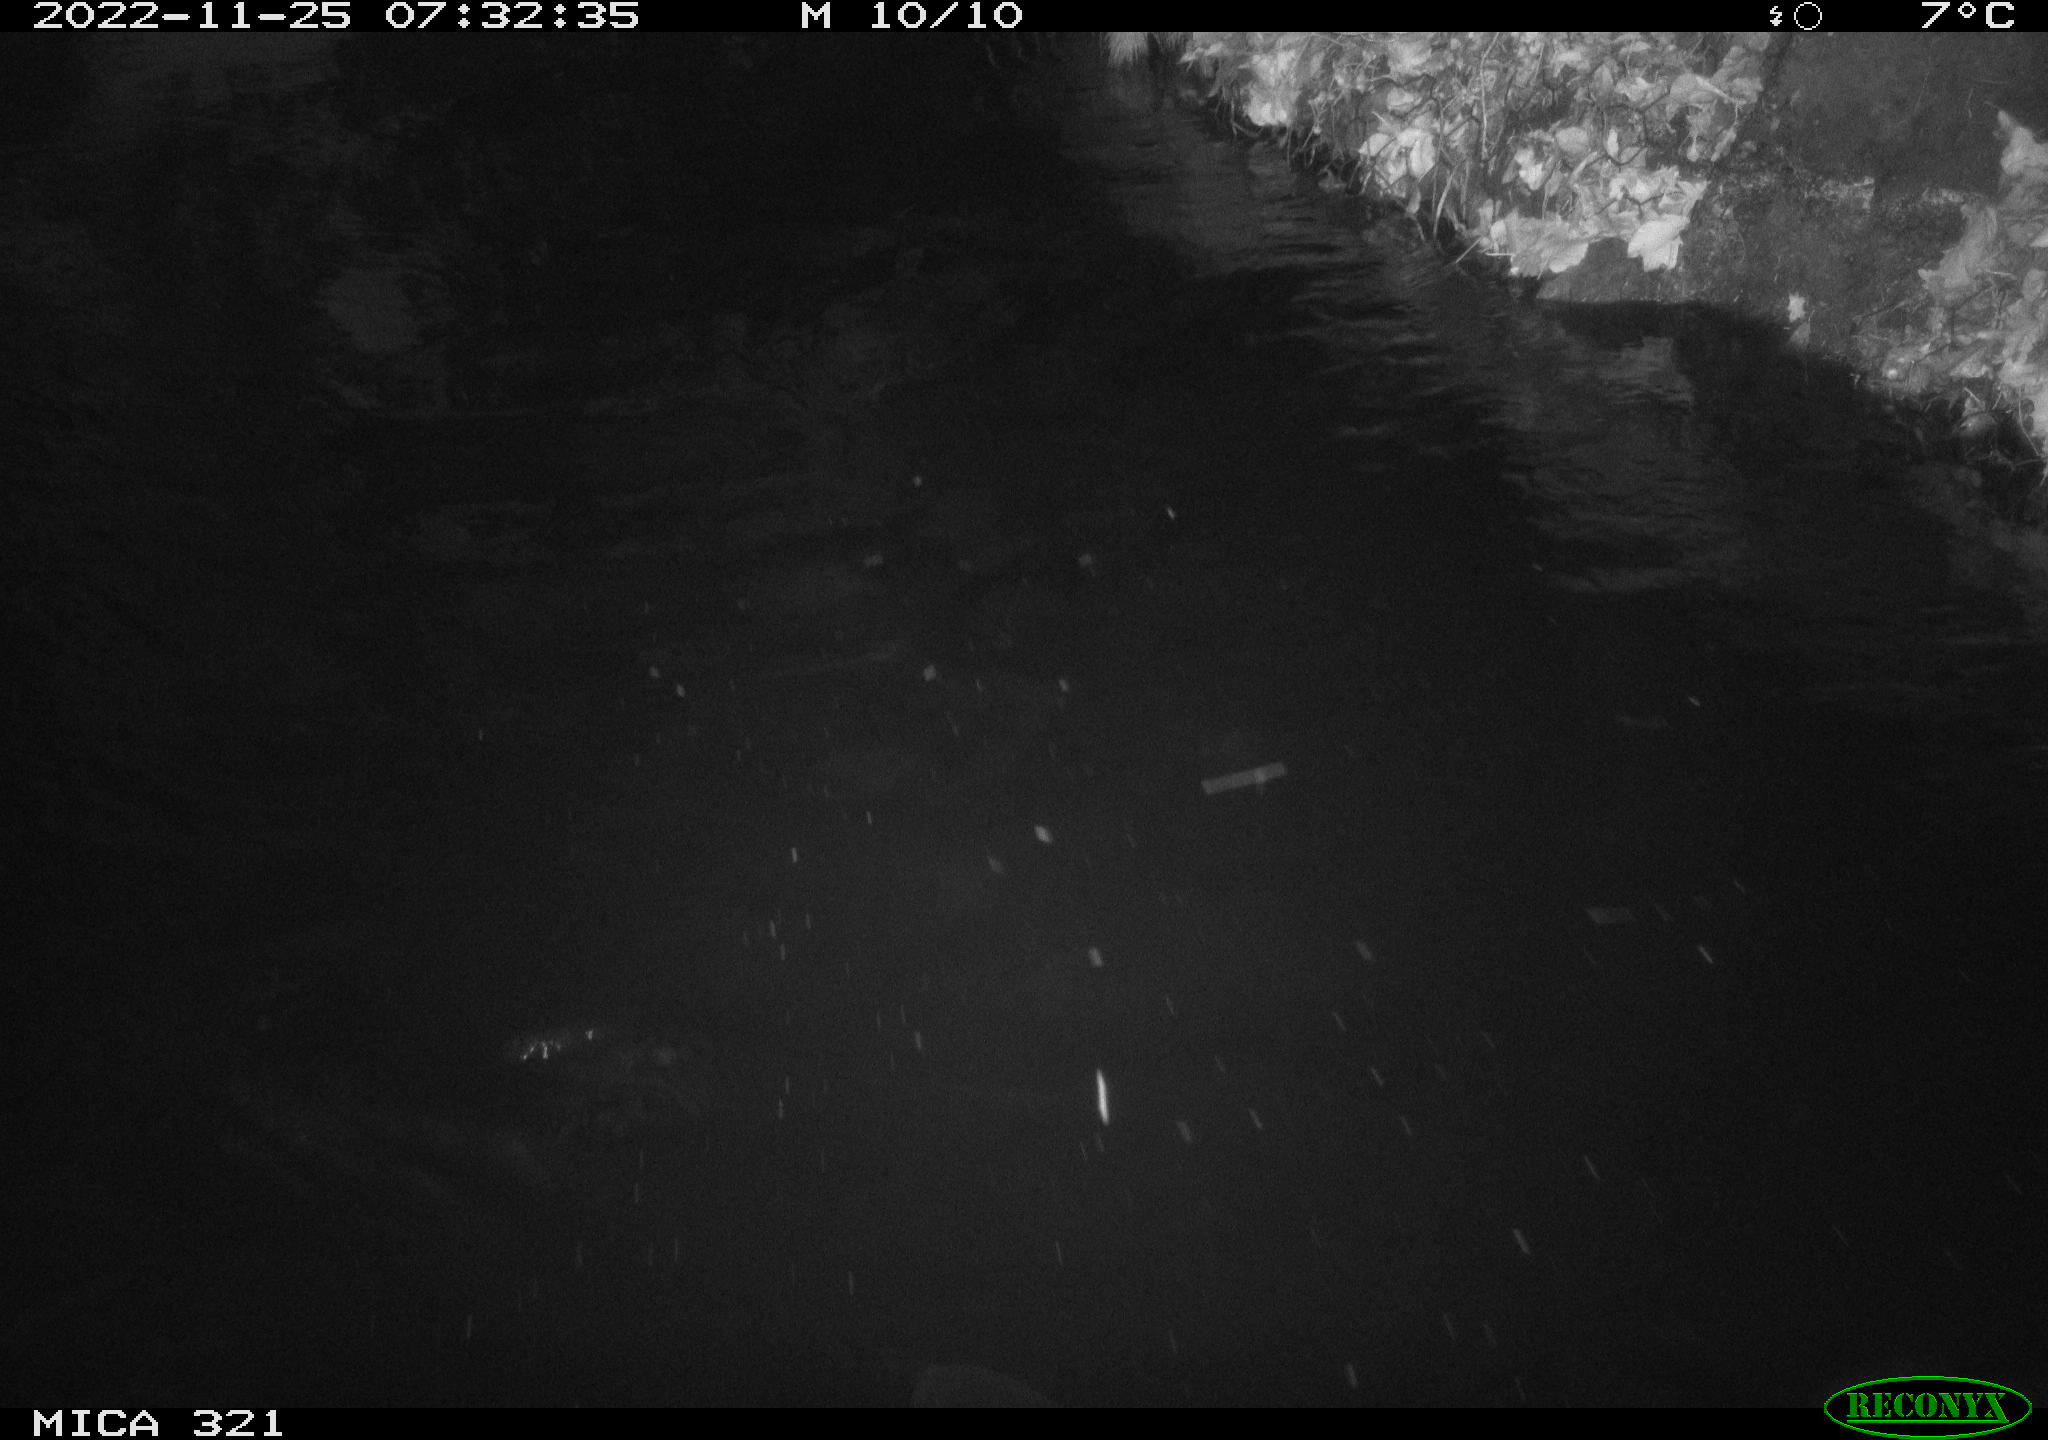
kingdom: Animalia
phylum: Chordata
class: Aves
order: Anseriformes
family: Anatidae
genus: Anas
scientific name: Anas
